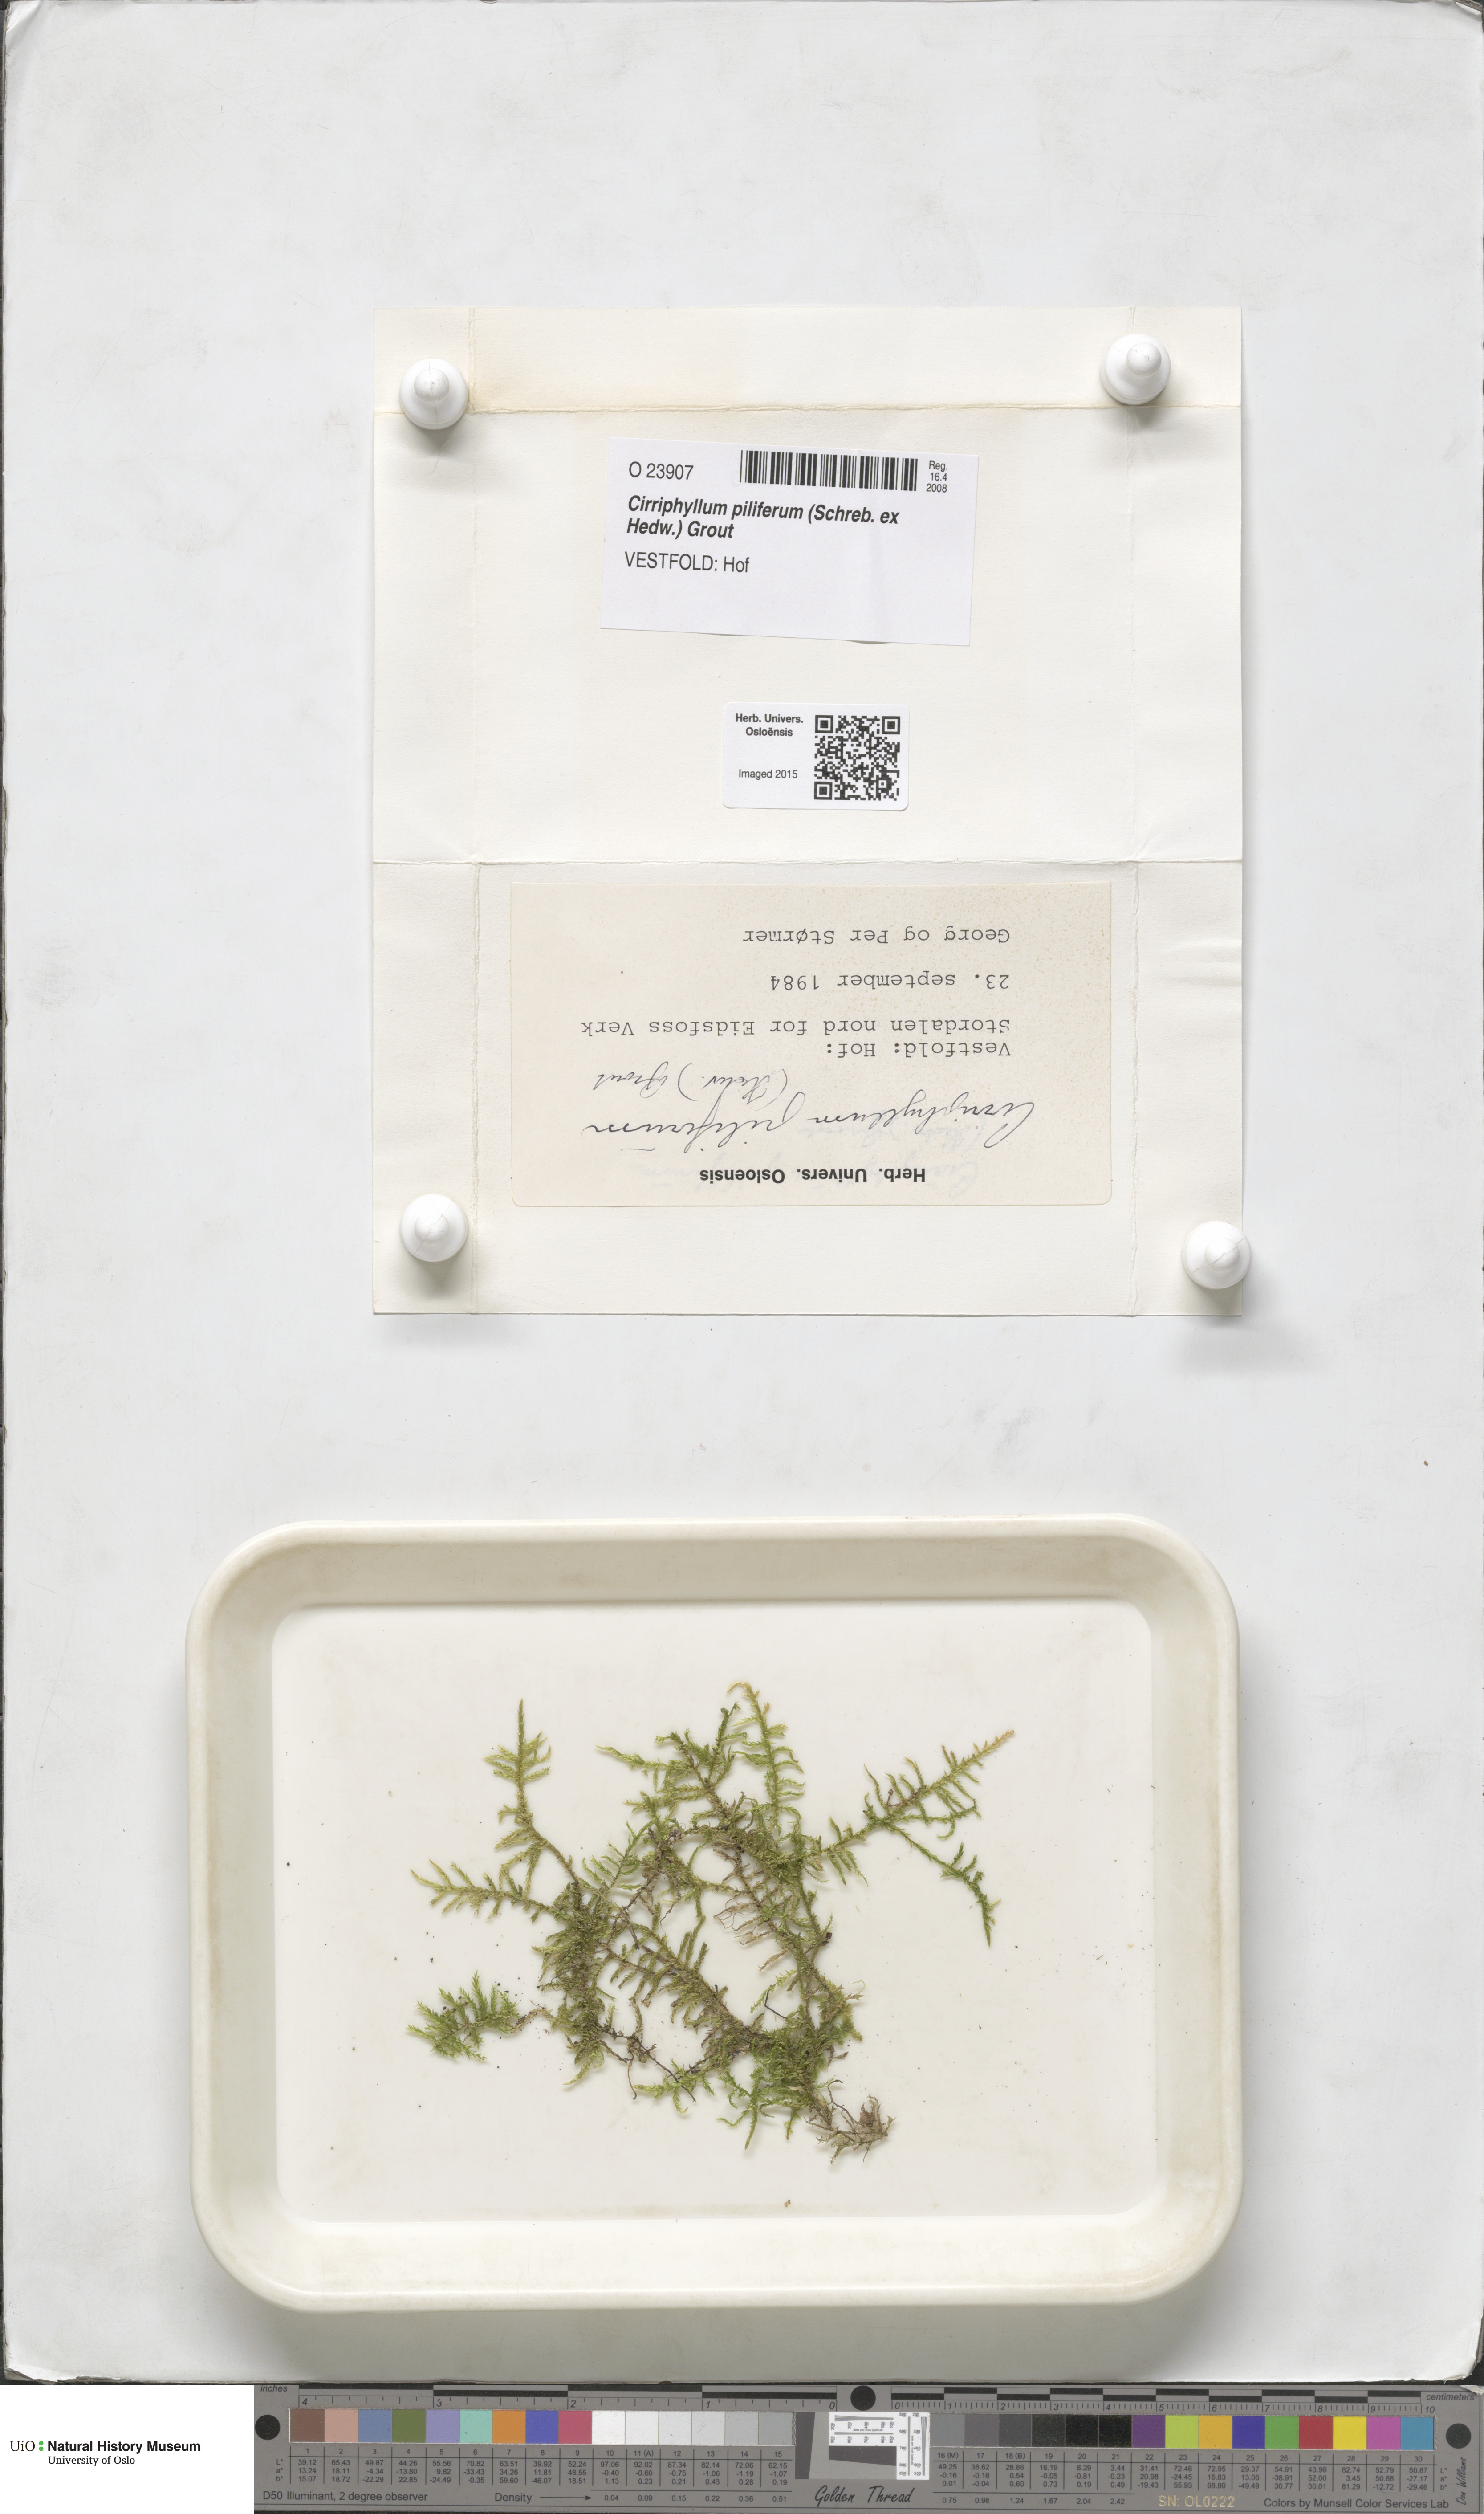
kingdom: Plantae
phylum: Bryophyta
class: Bryopsida
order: Hypnales
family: Brachytheciaceae
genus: Cirriphyllum
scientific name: Cirriphyllum piliferum
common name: Hair-pointed moss
